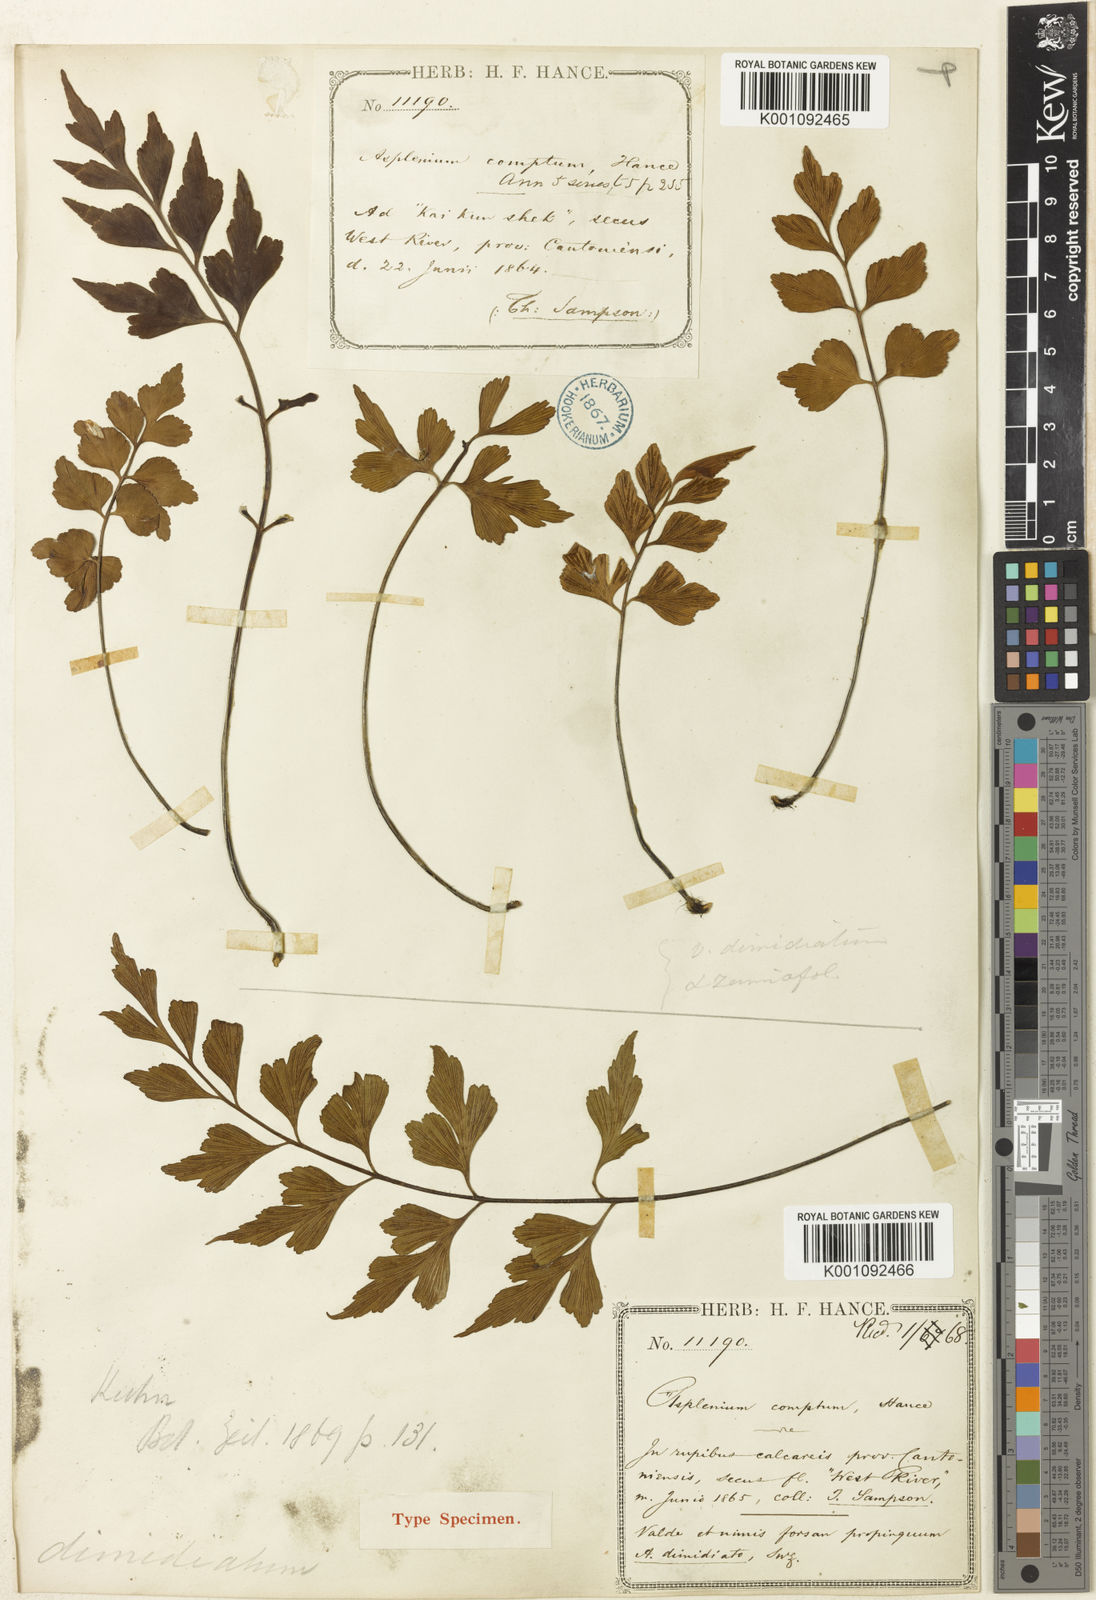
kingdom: Plantae
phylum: Tracheophyta
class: Polypodiopsida
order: Polypodiales
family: Aspleniaceae
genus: Asplenium
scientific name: Asplenium saxicola
